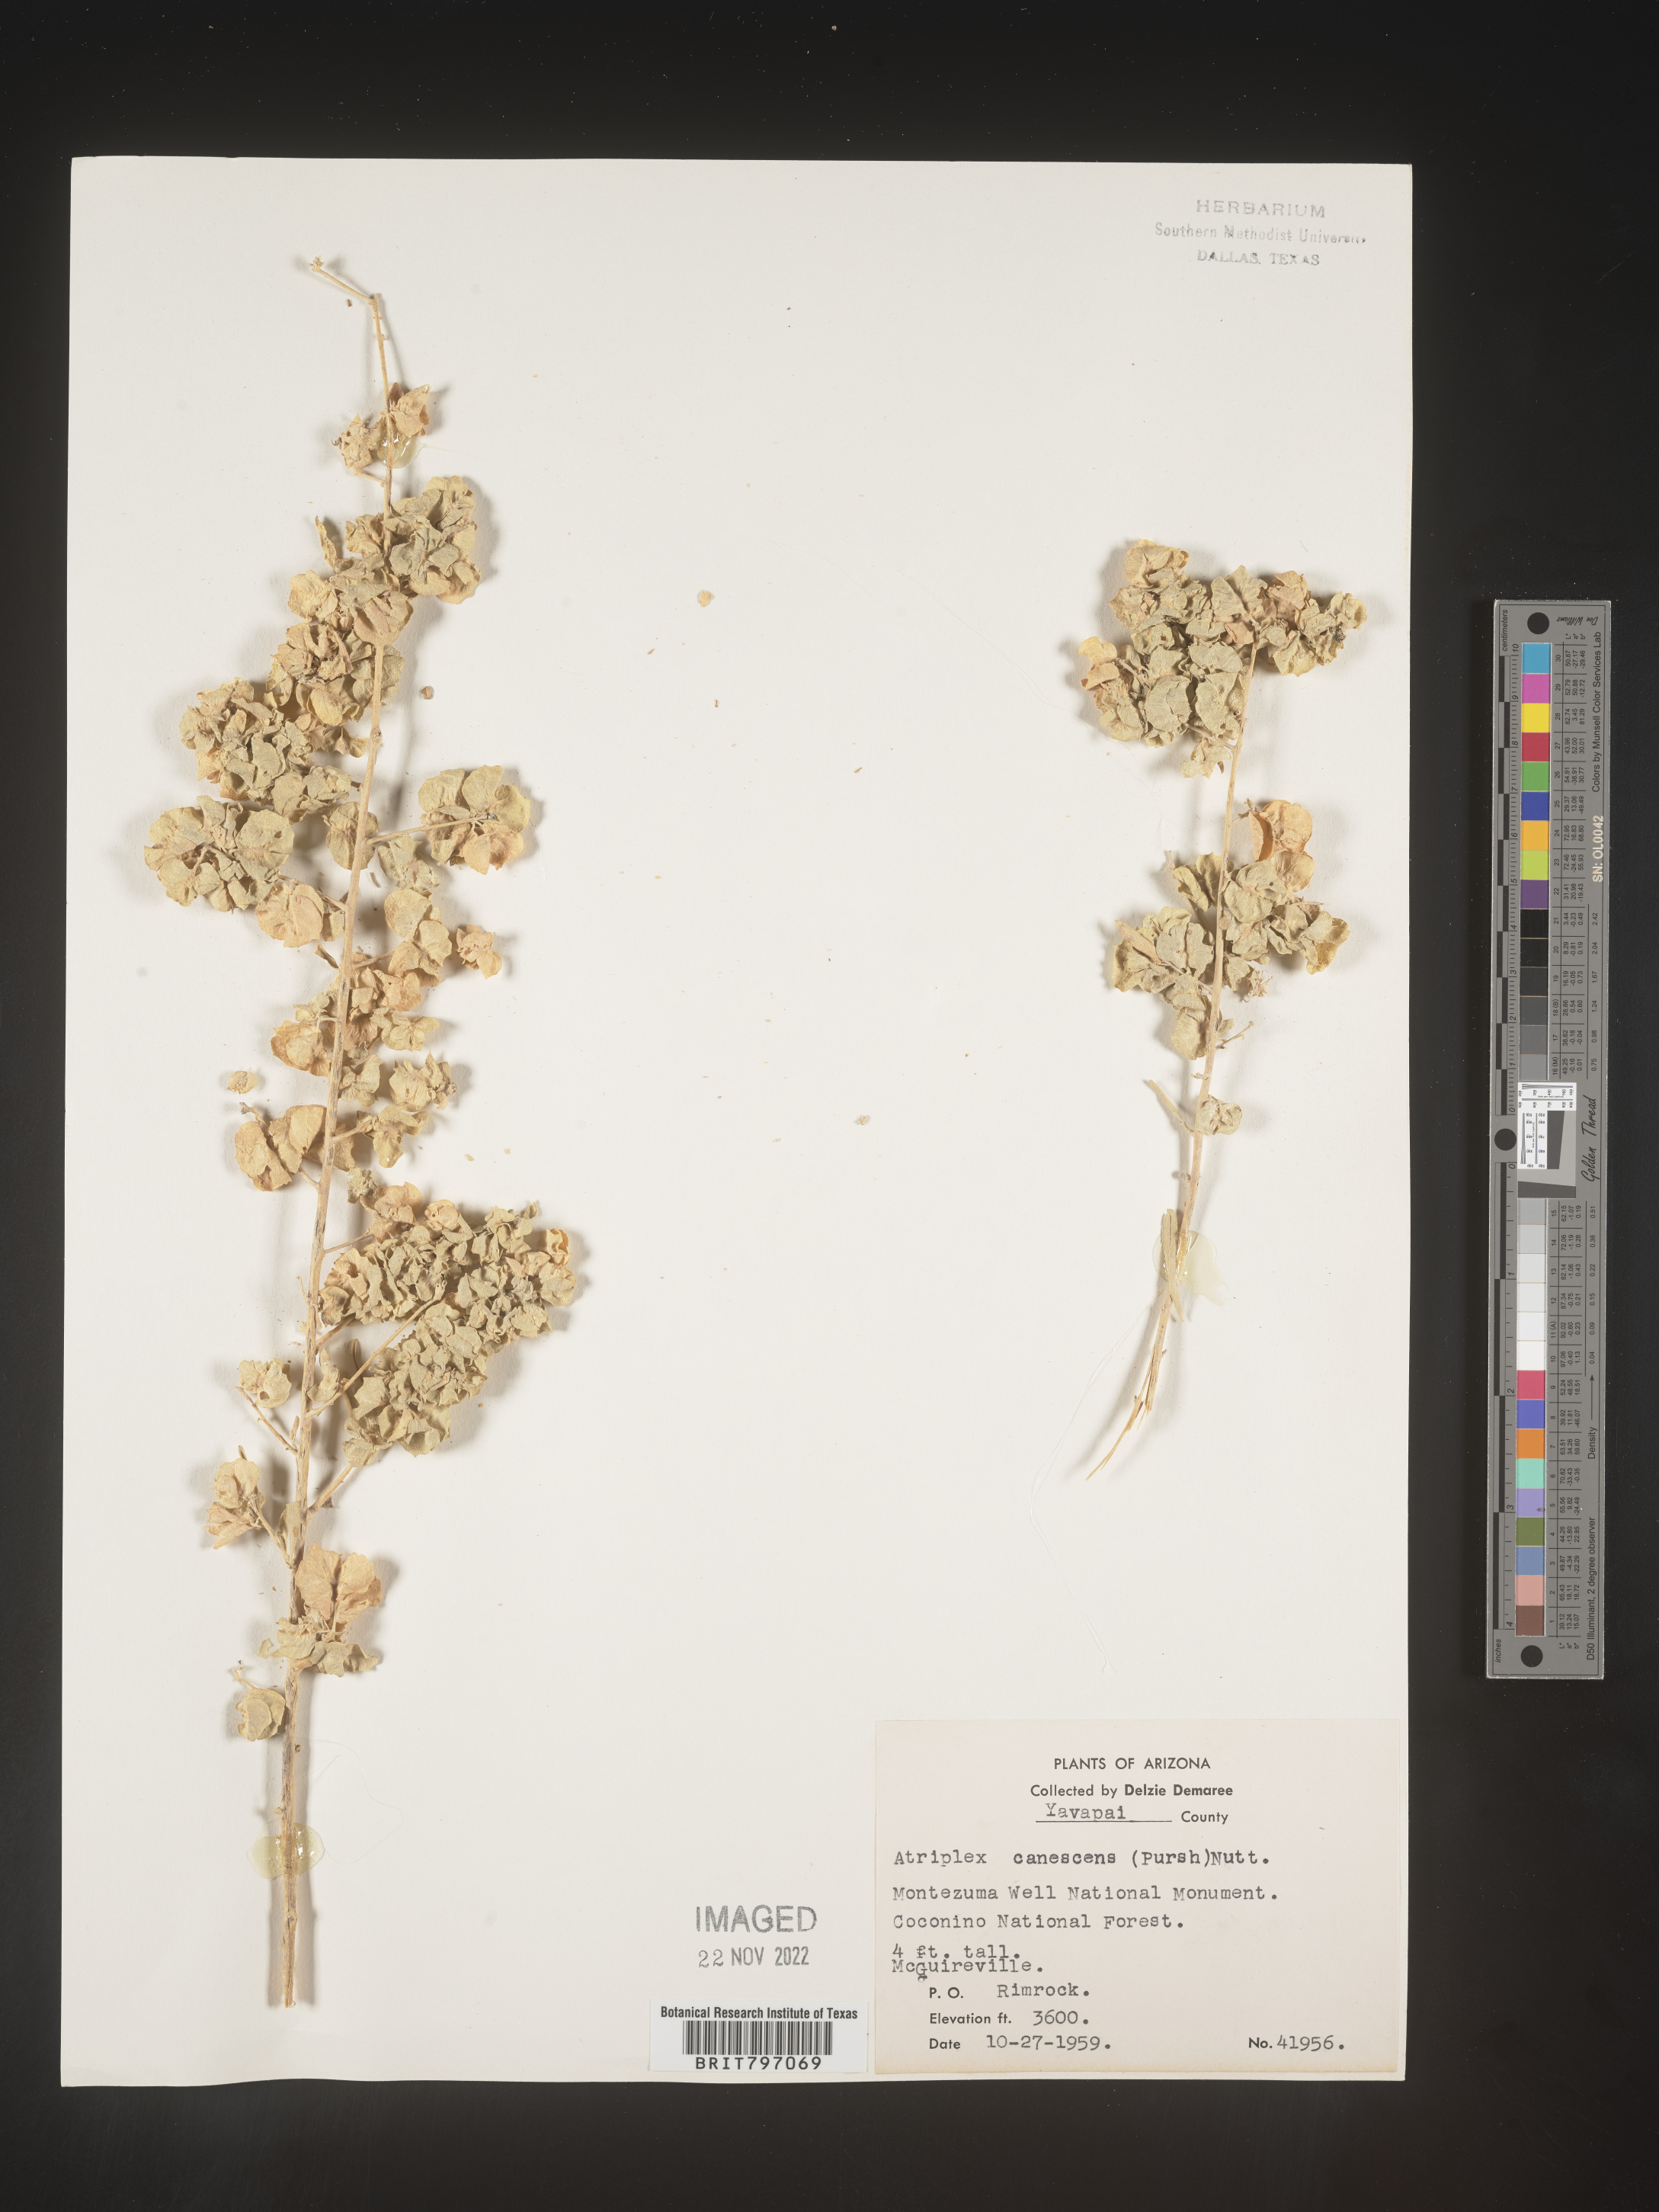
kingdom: Plantae
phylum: Tracheophyta
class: Magnoliopsida
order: Caryophyllales
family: Amaranthaceae
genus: Atriplex
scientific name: Atriplex canescens
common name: Four-wing saltbush
